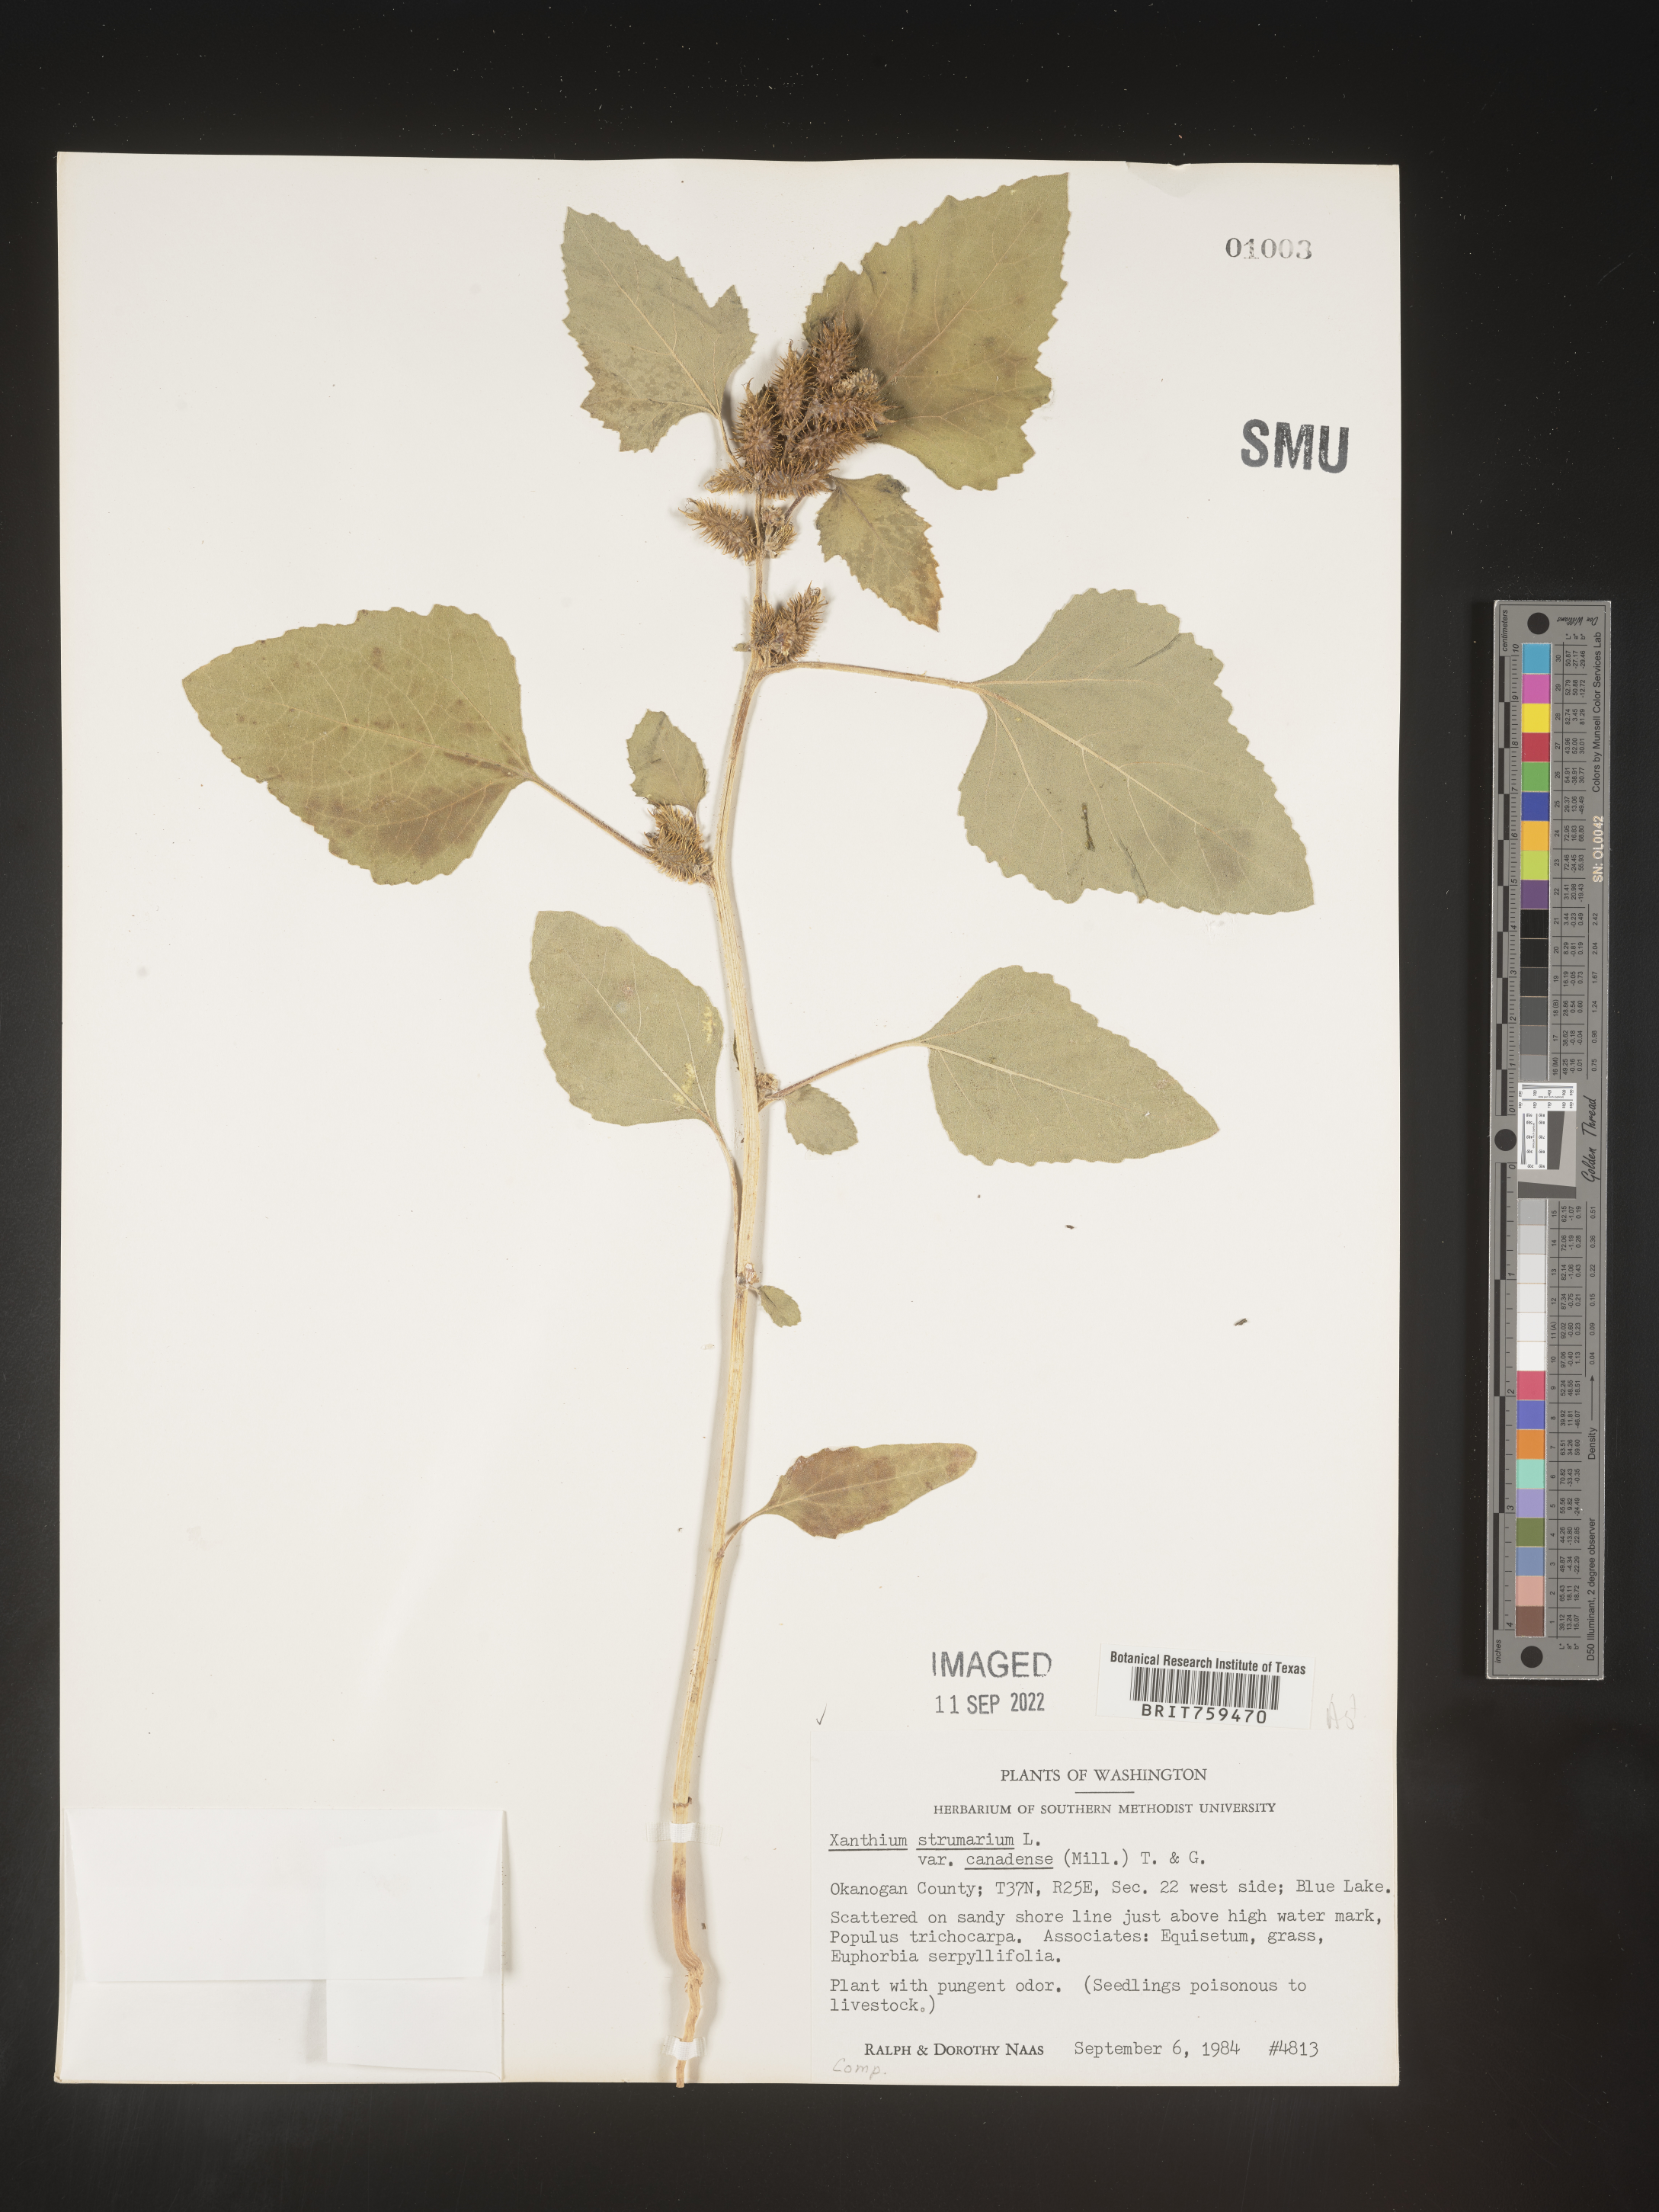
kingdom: Plantae
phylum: Tracheophyta
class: Magnoliopsida
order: Asterales
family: Asteraceae
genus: Xanthium
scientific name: Xanthium orientale
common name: Californian burr
